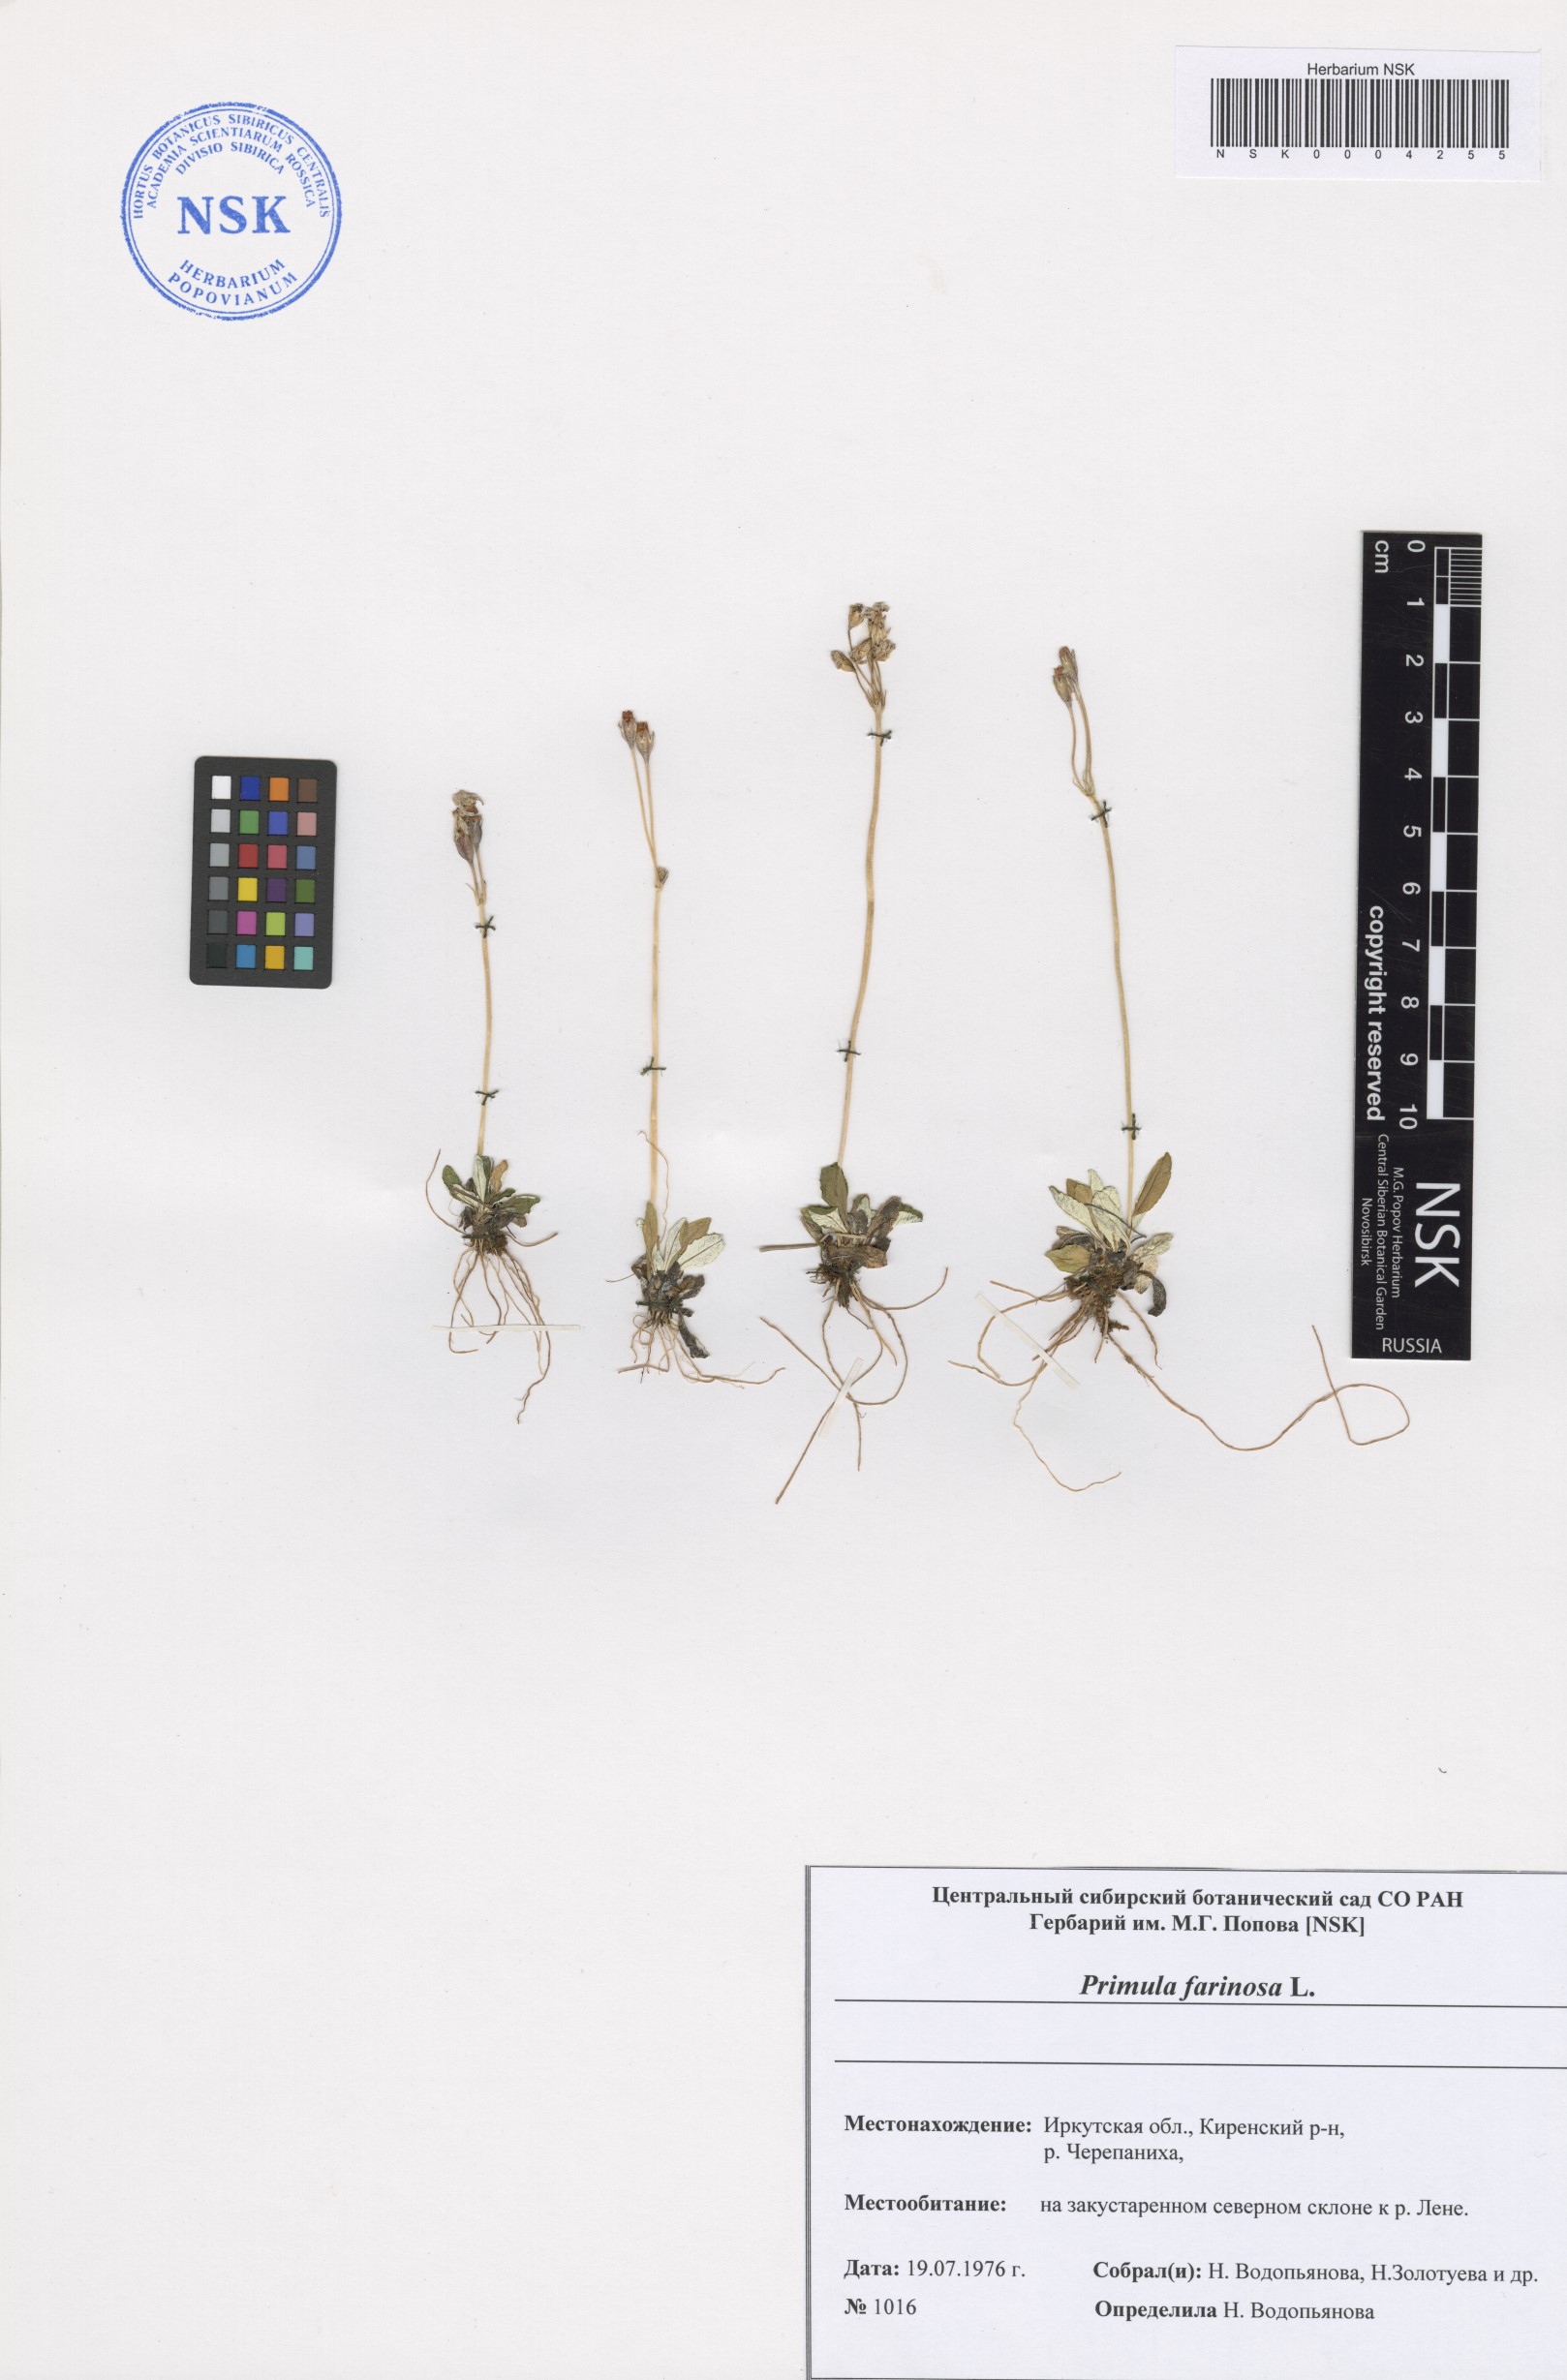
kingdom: Plantae
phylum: Tracheophyta
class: Magnoliopsida
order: Ericales
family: Primulaceae
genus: Primula
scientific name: Primula farinosa
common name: Bird's-eye primrose
